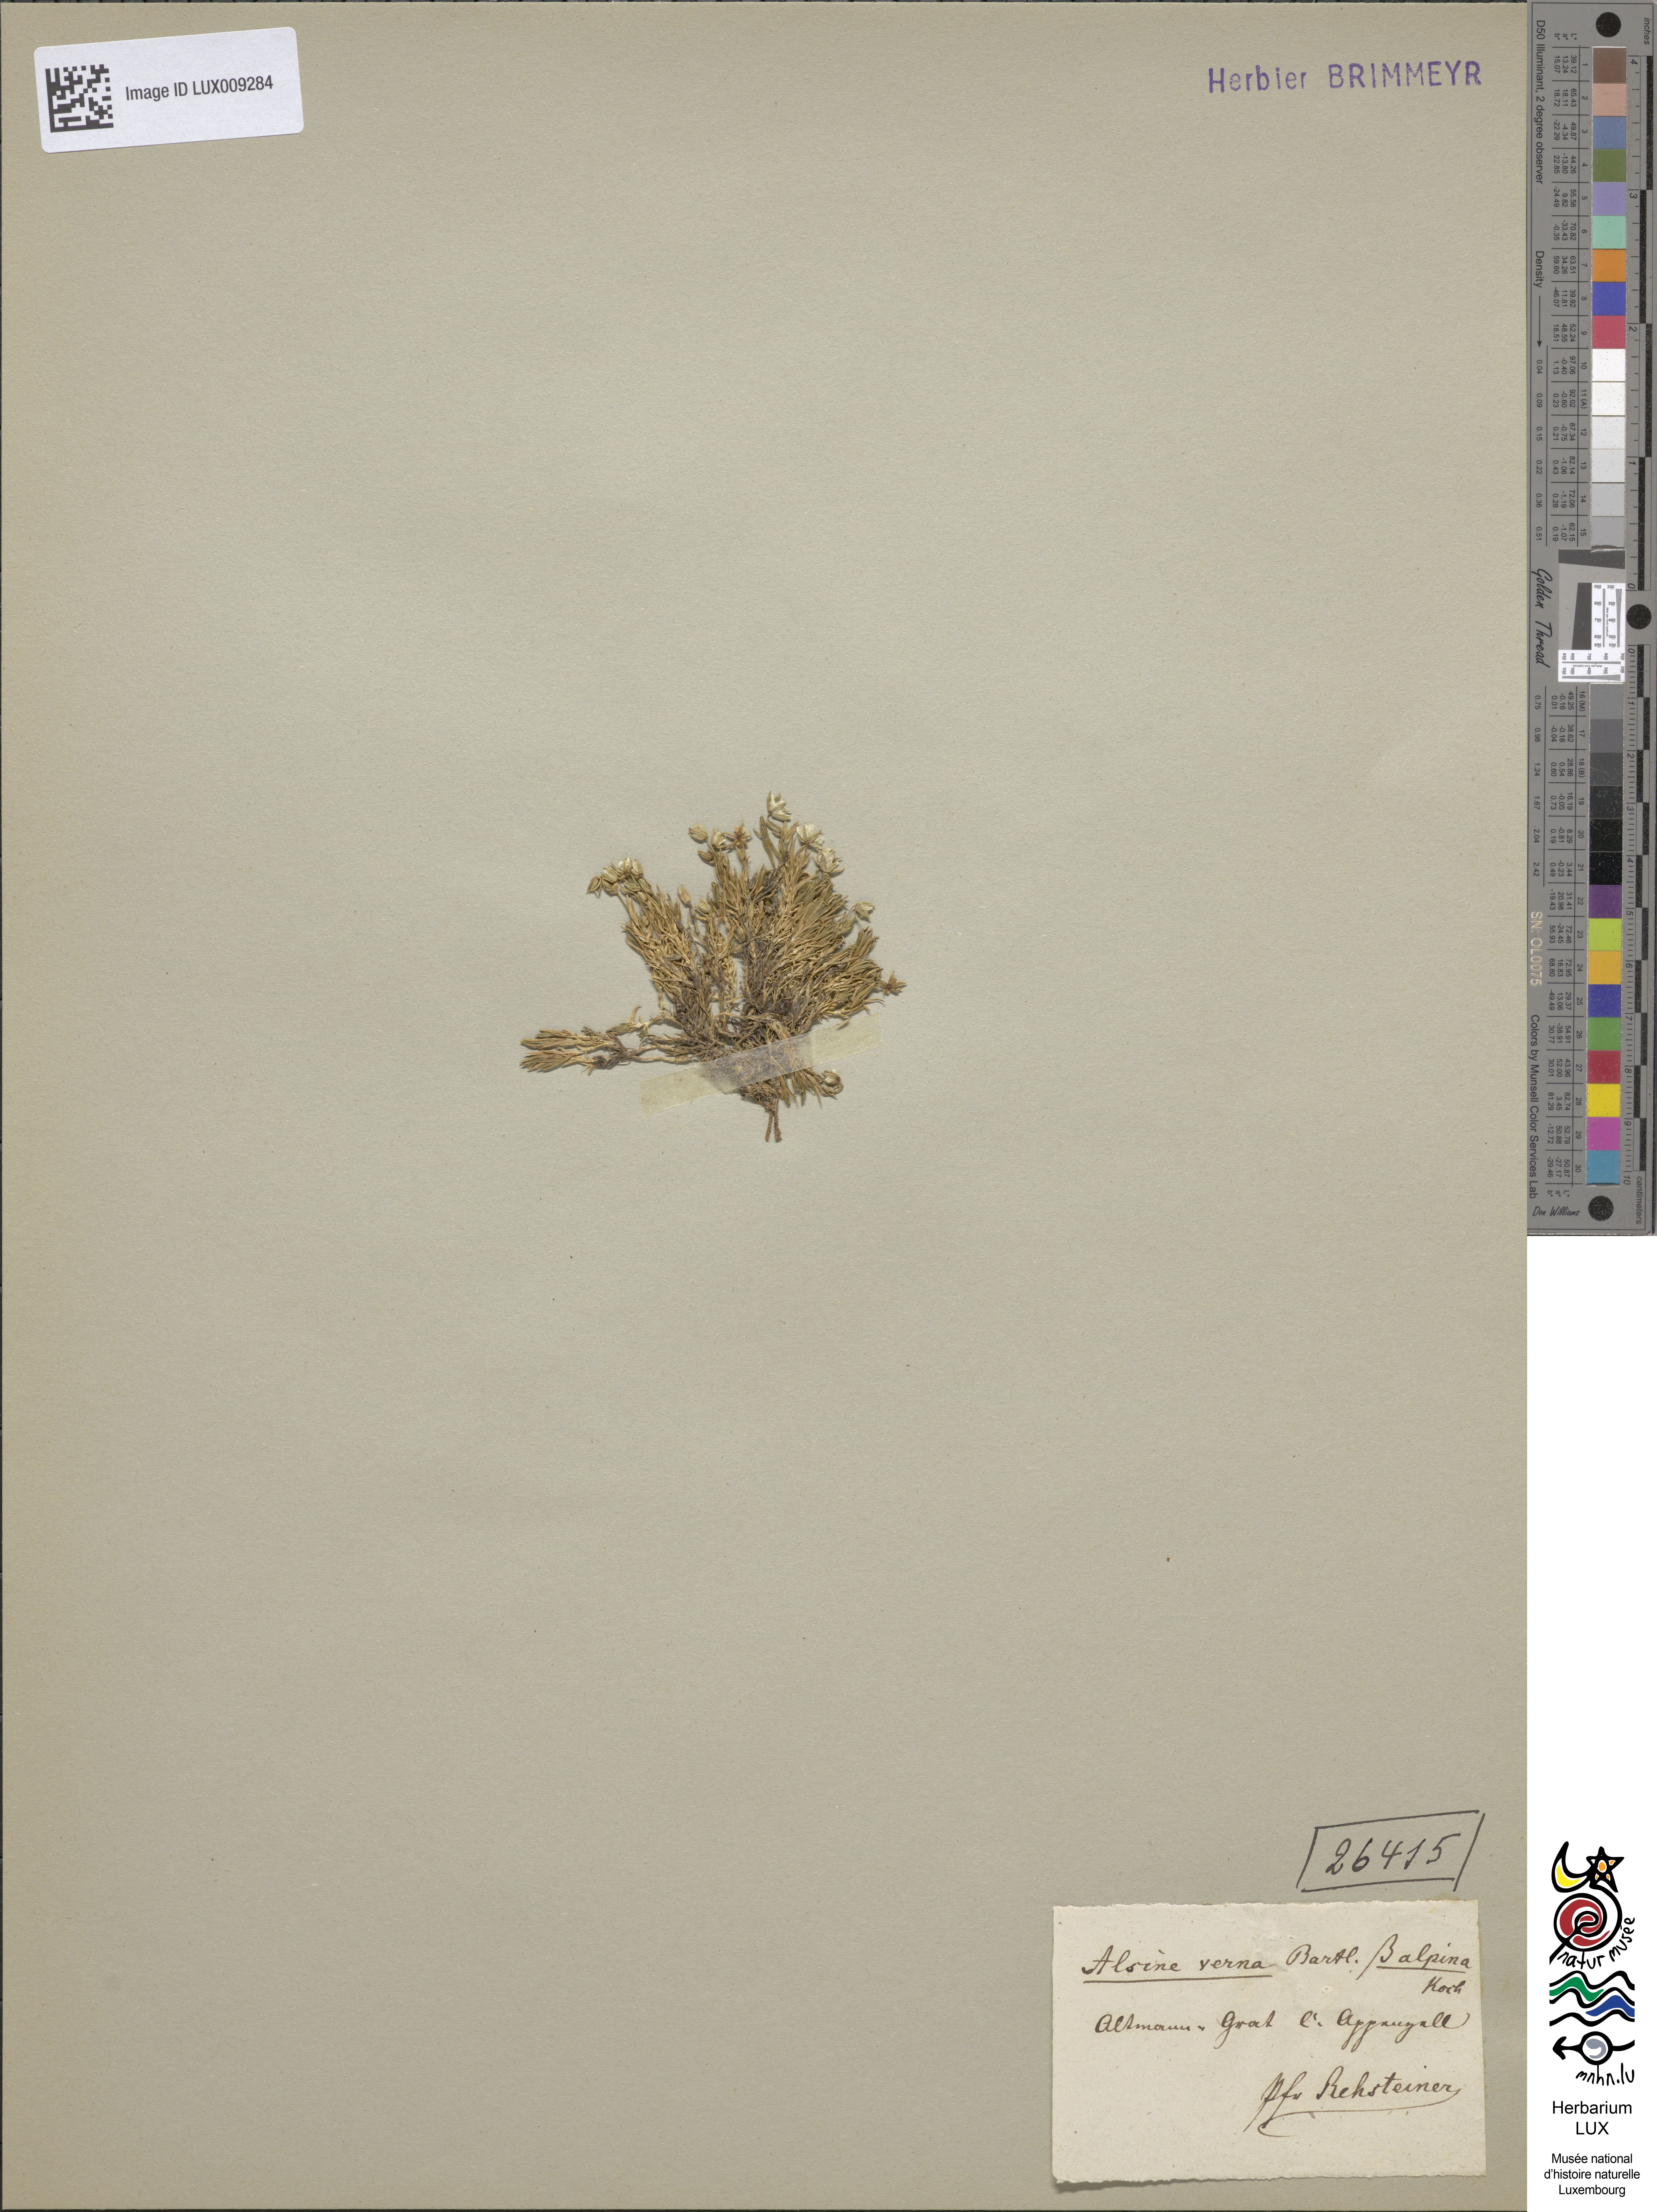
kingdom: Plantae
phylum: Tracheophyta
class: Magnoliopsida
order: Caryophyllales
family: Caryophyllaceae
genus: Sabulina
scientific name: Sabulina verna
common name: Spring sandwort
